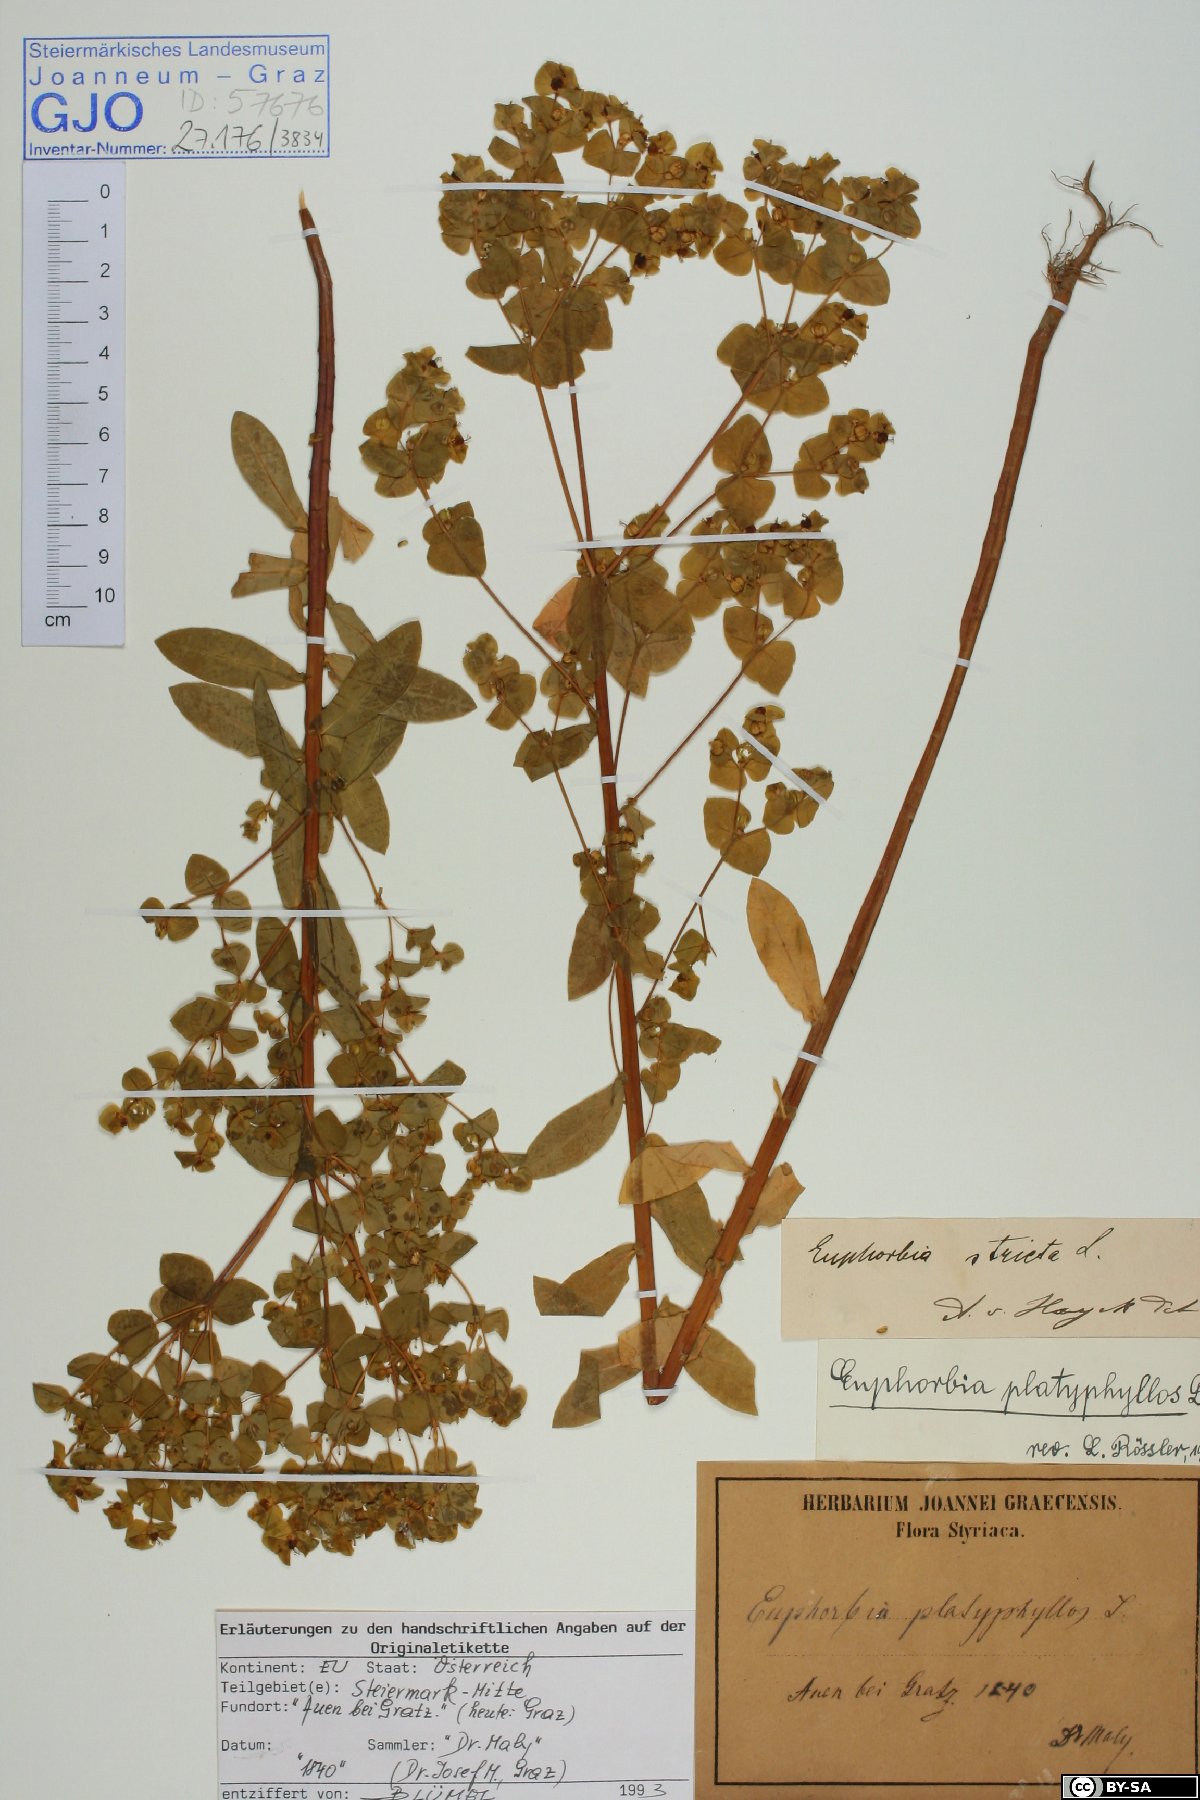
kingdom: Plantae
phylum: Tracheophyta
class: Magnoliopsida
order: Malpighiales
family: Euphorbiaceae
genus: Euphorbia
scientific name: Euphorbia platyphyllos
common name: Broad-leaved spurge
